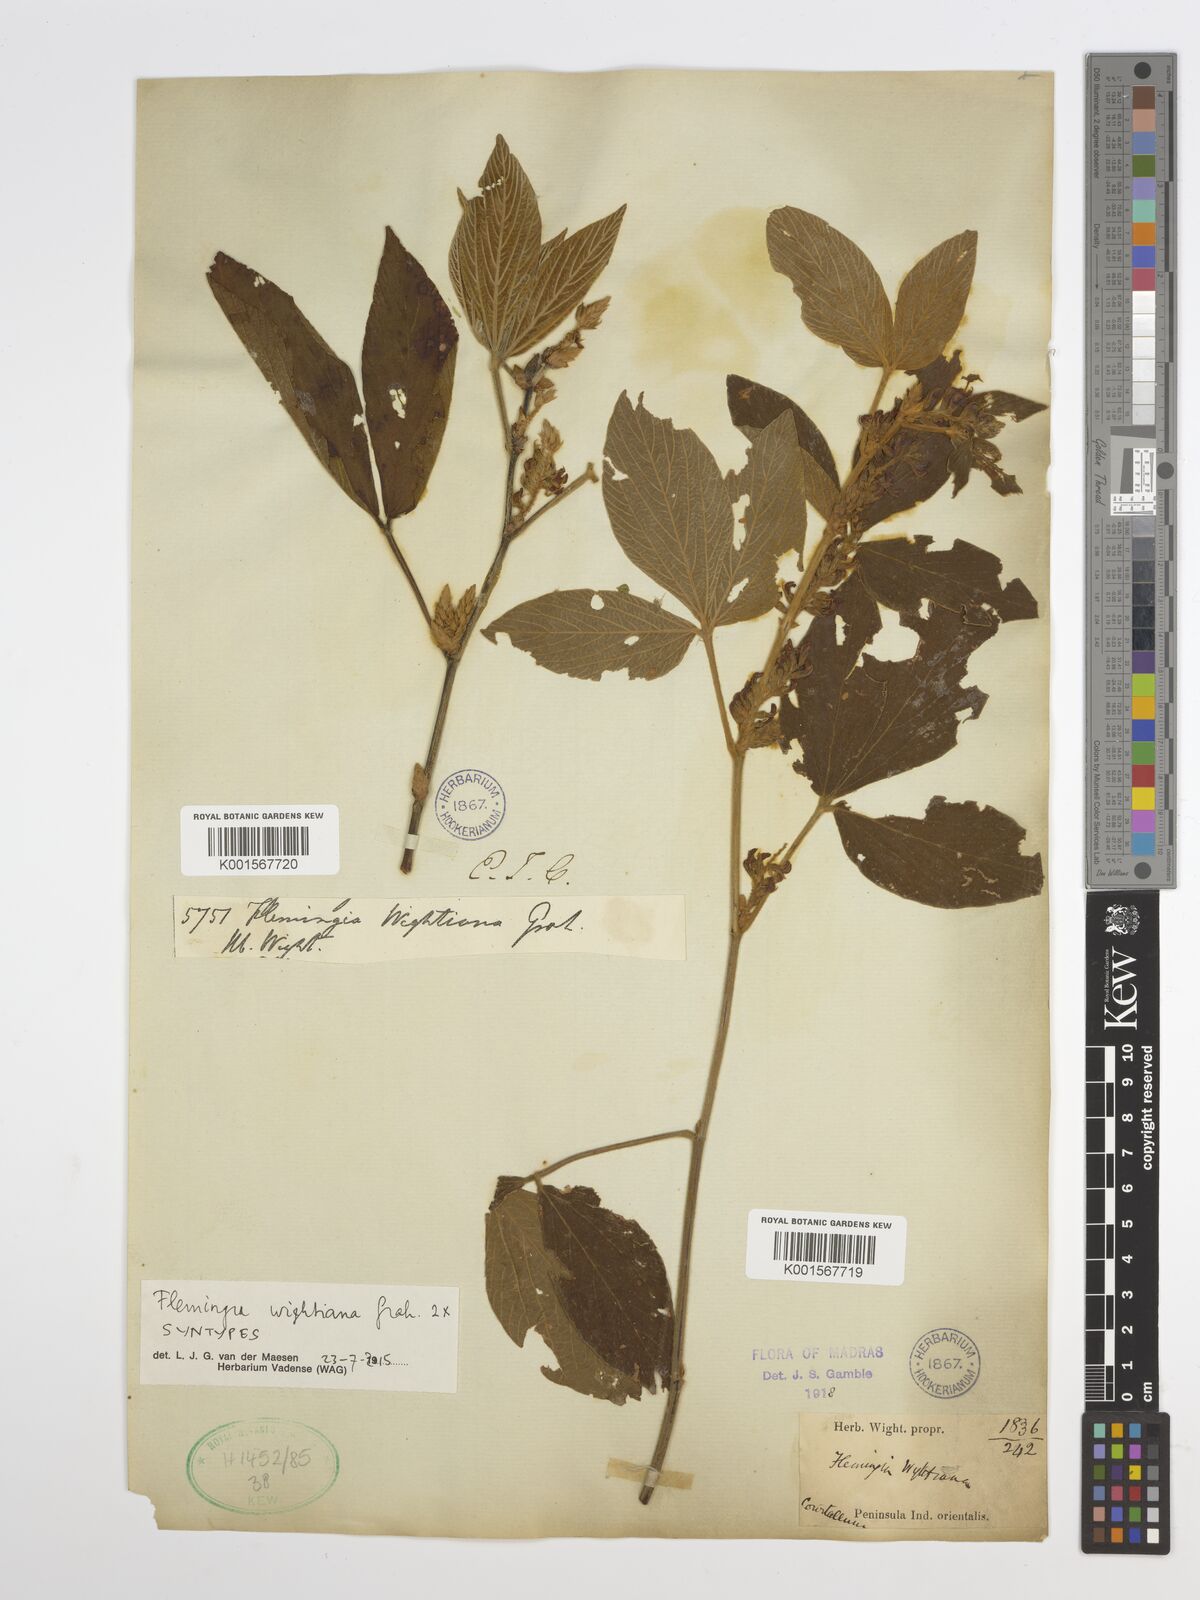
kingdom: Plantae
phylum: Tracheophyta
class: Magnoliopsida
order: Fabales
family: Fabaceae
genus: Flemingia
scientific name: Flemingia wightiana
